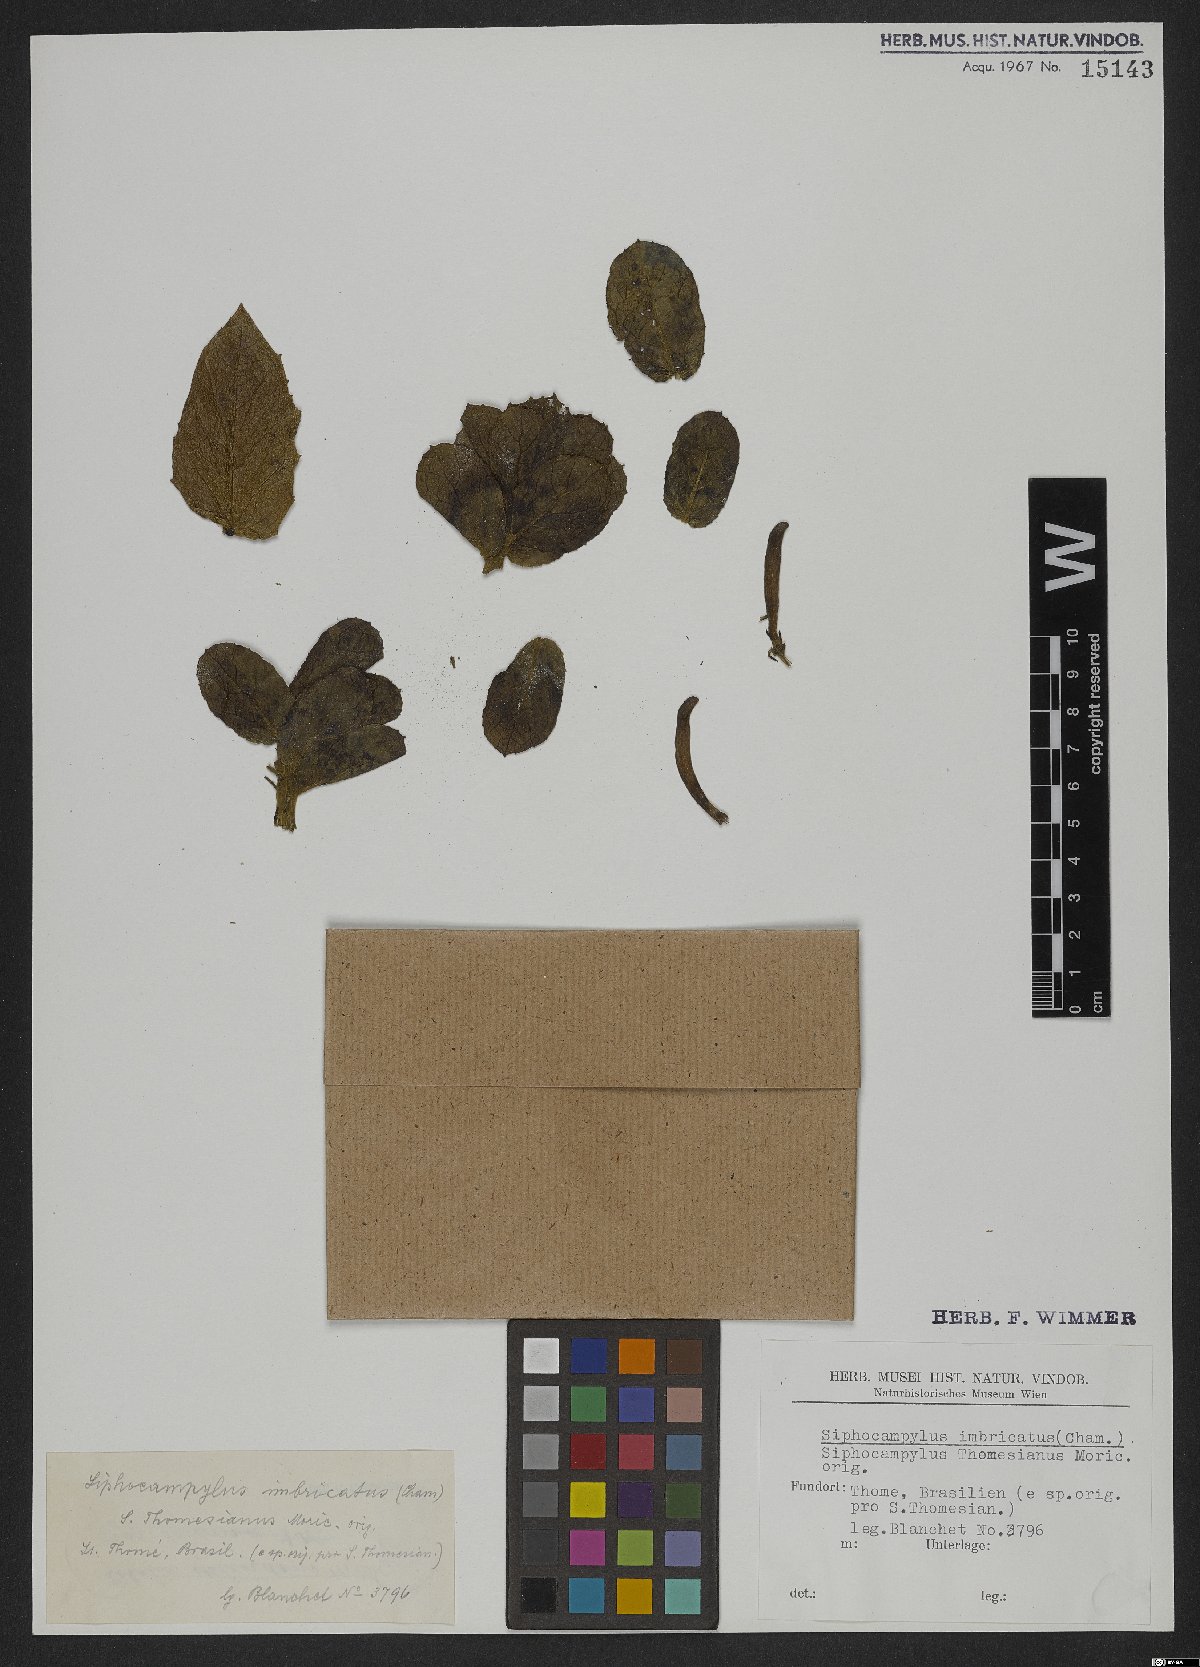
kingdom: Plantae
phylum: Tracheophyta
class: Magnoliopsida
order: Asterales
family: Campanulaceae
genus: Siphocampylus
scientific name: Siphocampylus imbricatus
